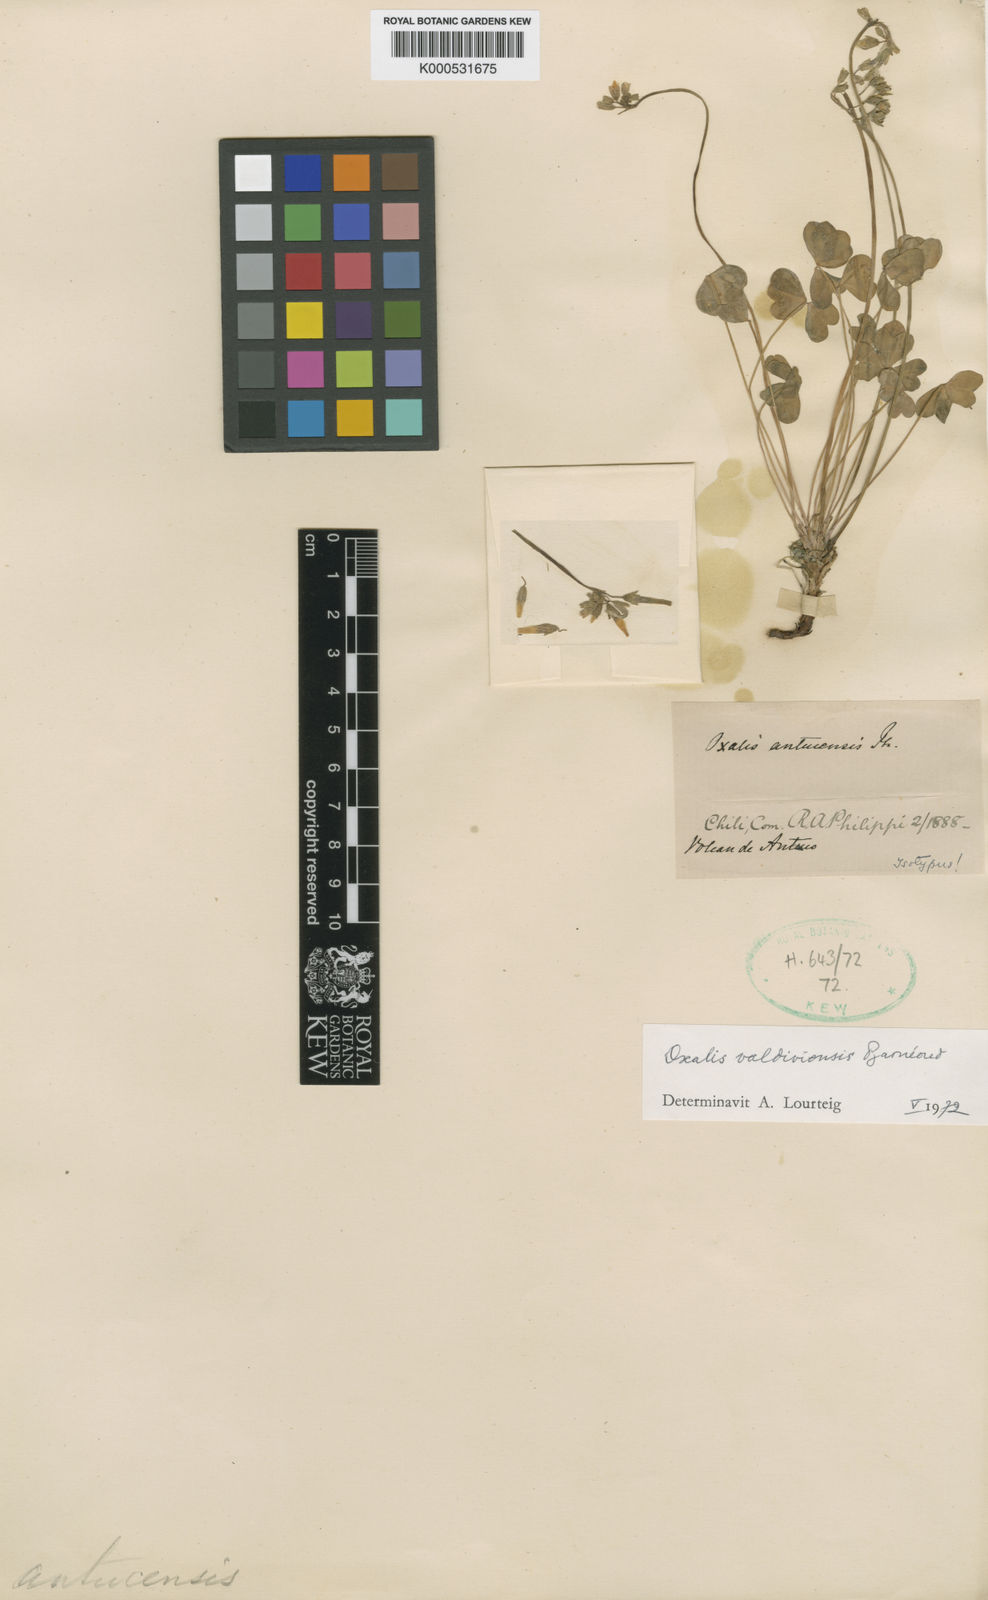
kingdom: Plantae
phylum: Tracheophyta
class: Magnoliopsida
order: Oxalidales
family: Oxalidaceae
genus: Oxalis
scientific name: Oxalis
